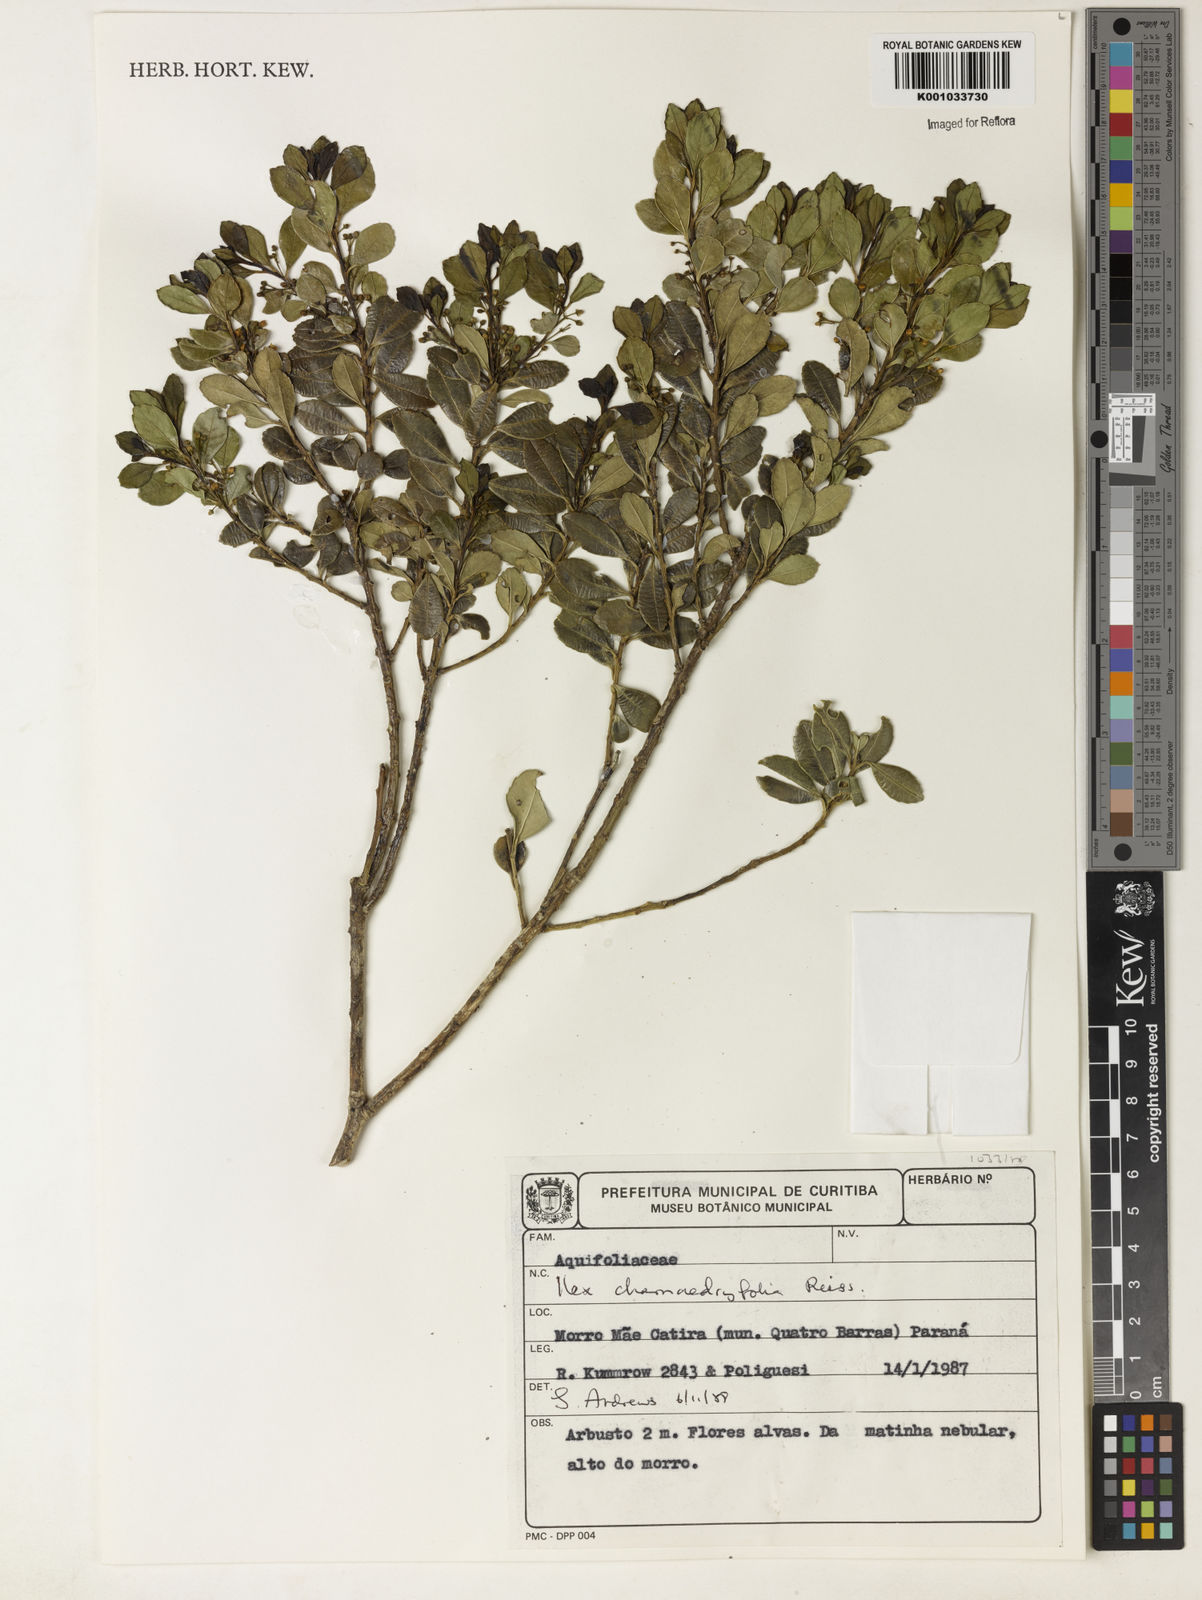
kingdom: Plantae
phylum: Tracheophyta
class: Magnoliopsida
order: Aquifoliales
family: Aquifoliaceae
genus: Ilex
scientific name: Ilex chamaedryfolia
